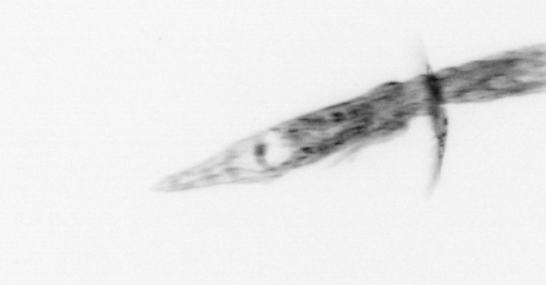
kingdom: Animalia
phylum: Arthropoda
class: Copepoda
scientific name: Copepoda
